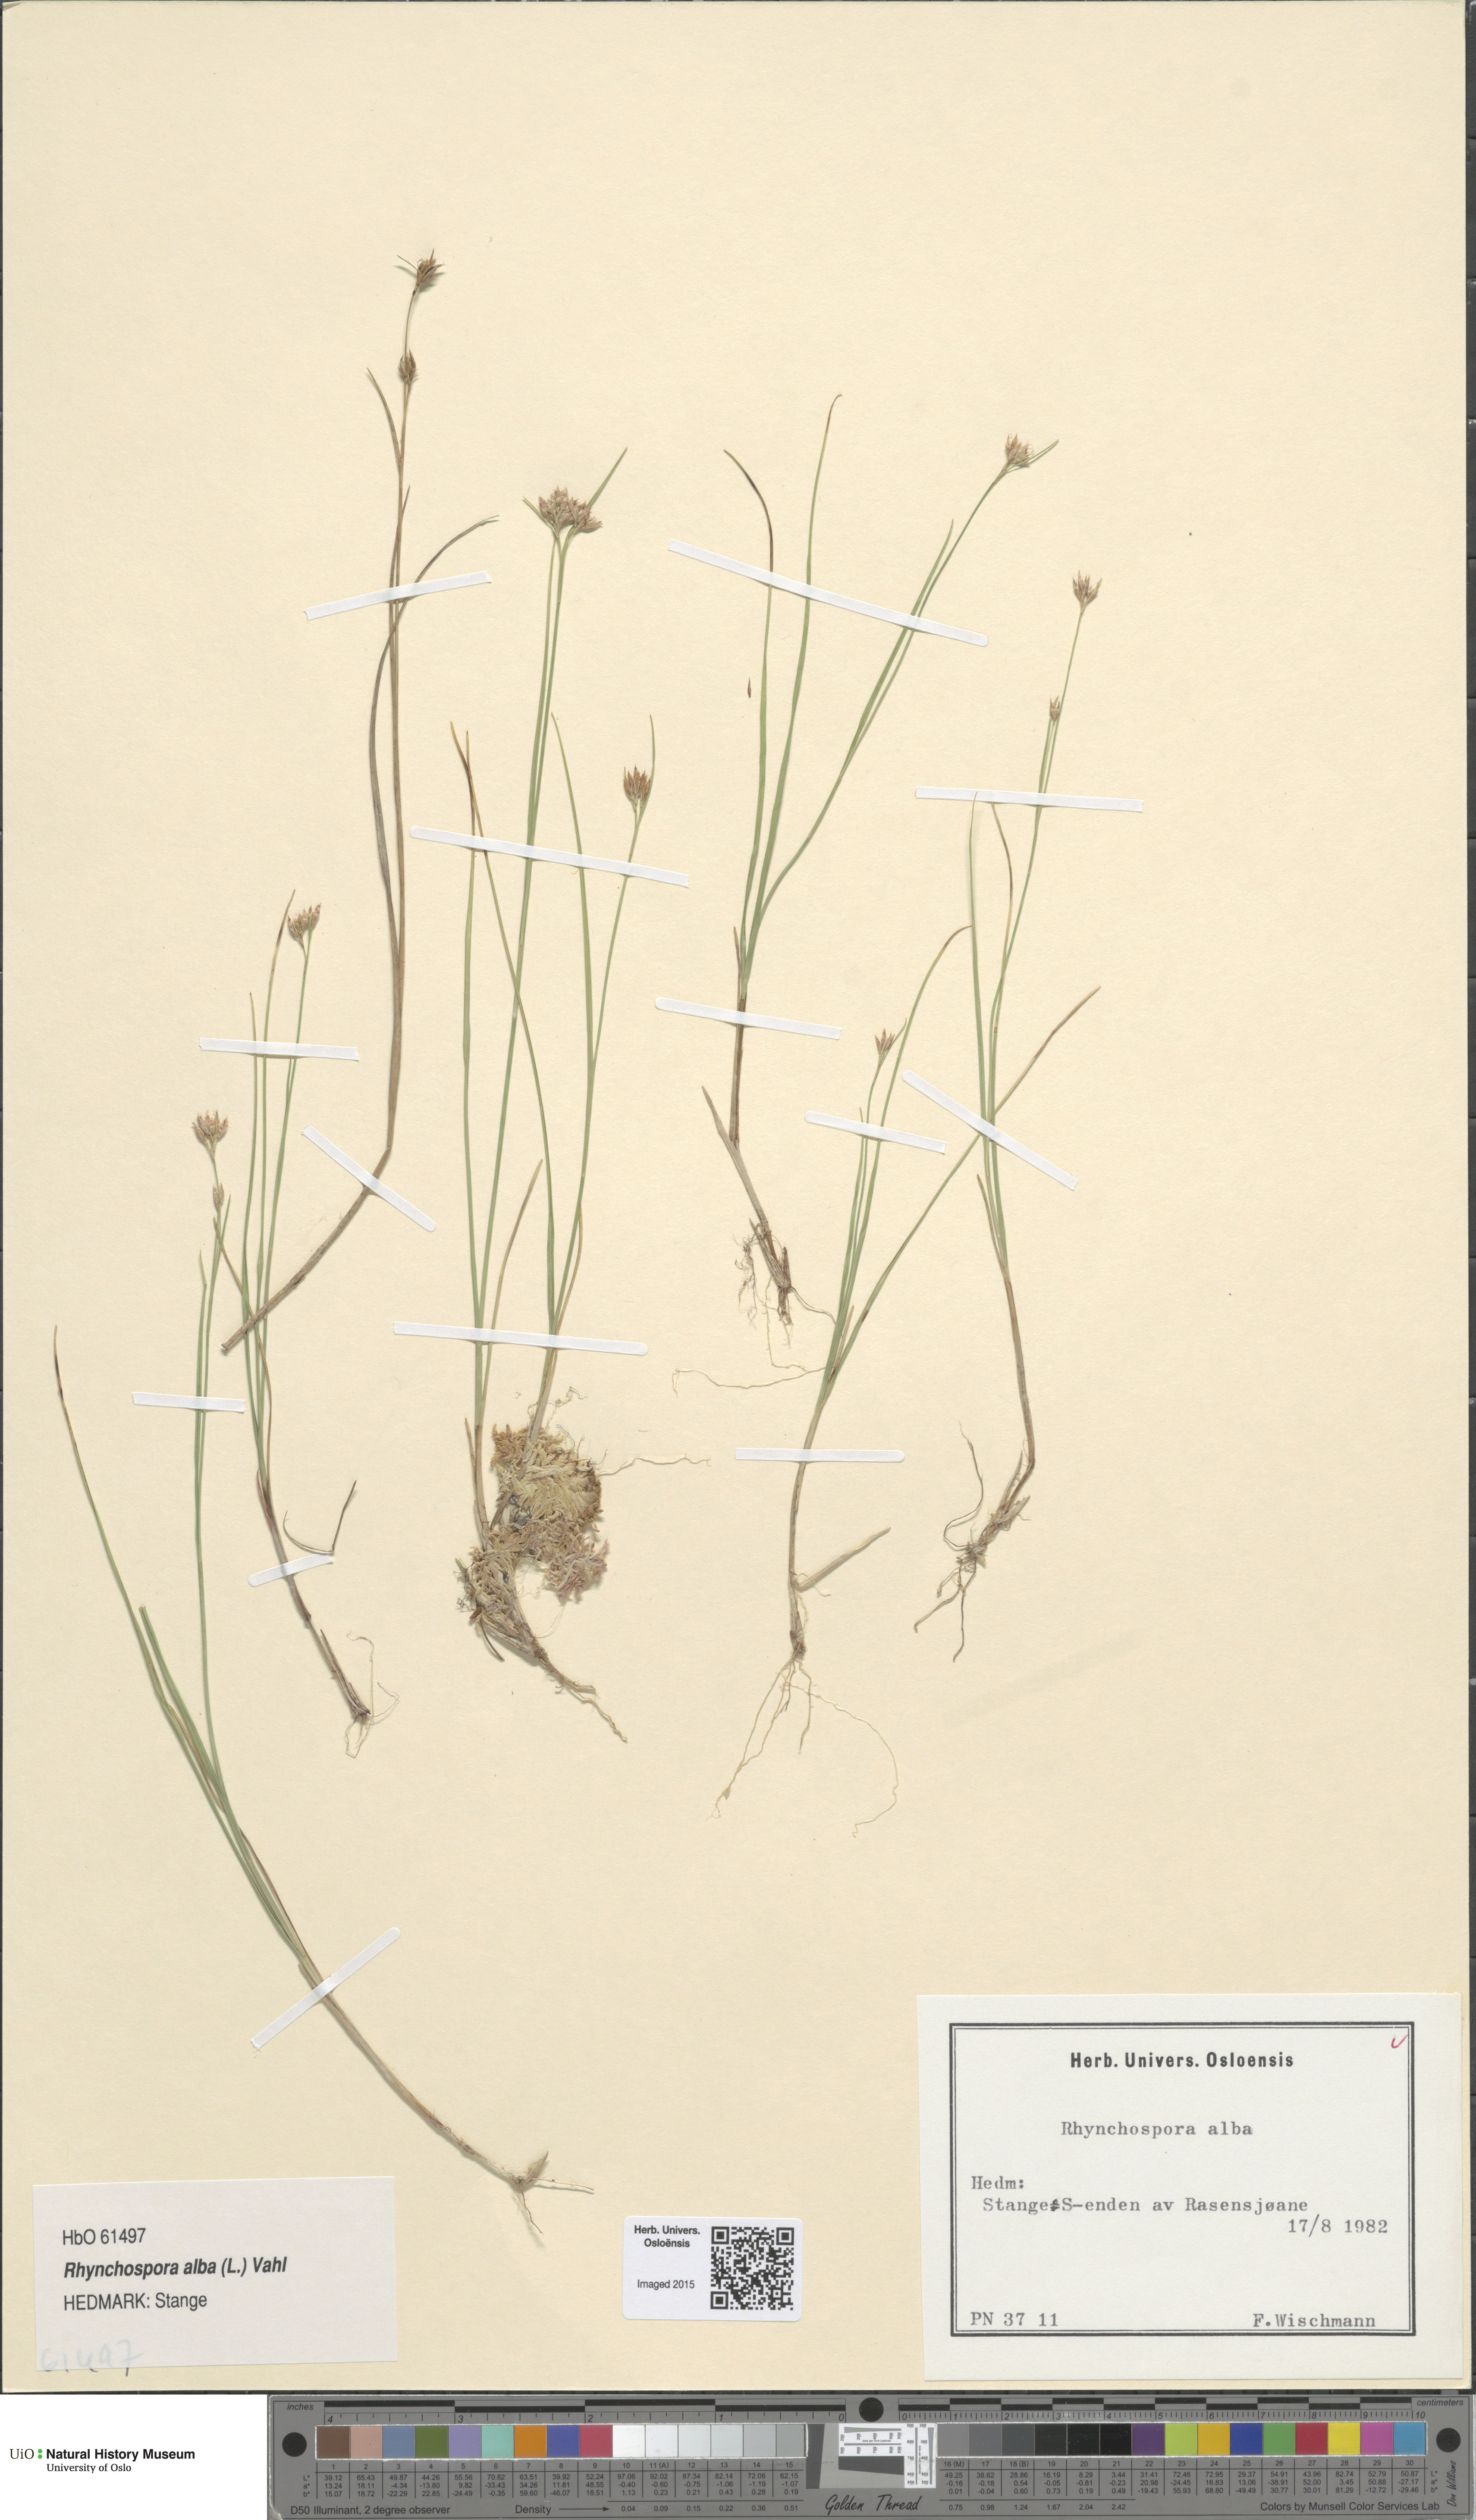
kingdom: Plantae
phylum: Tracheophyta
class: Liliopsida
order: Poales
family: Cyperaceae
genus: Rhynchospora
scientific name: Rhynchospora alba
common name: White beak-sedge
